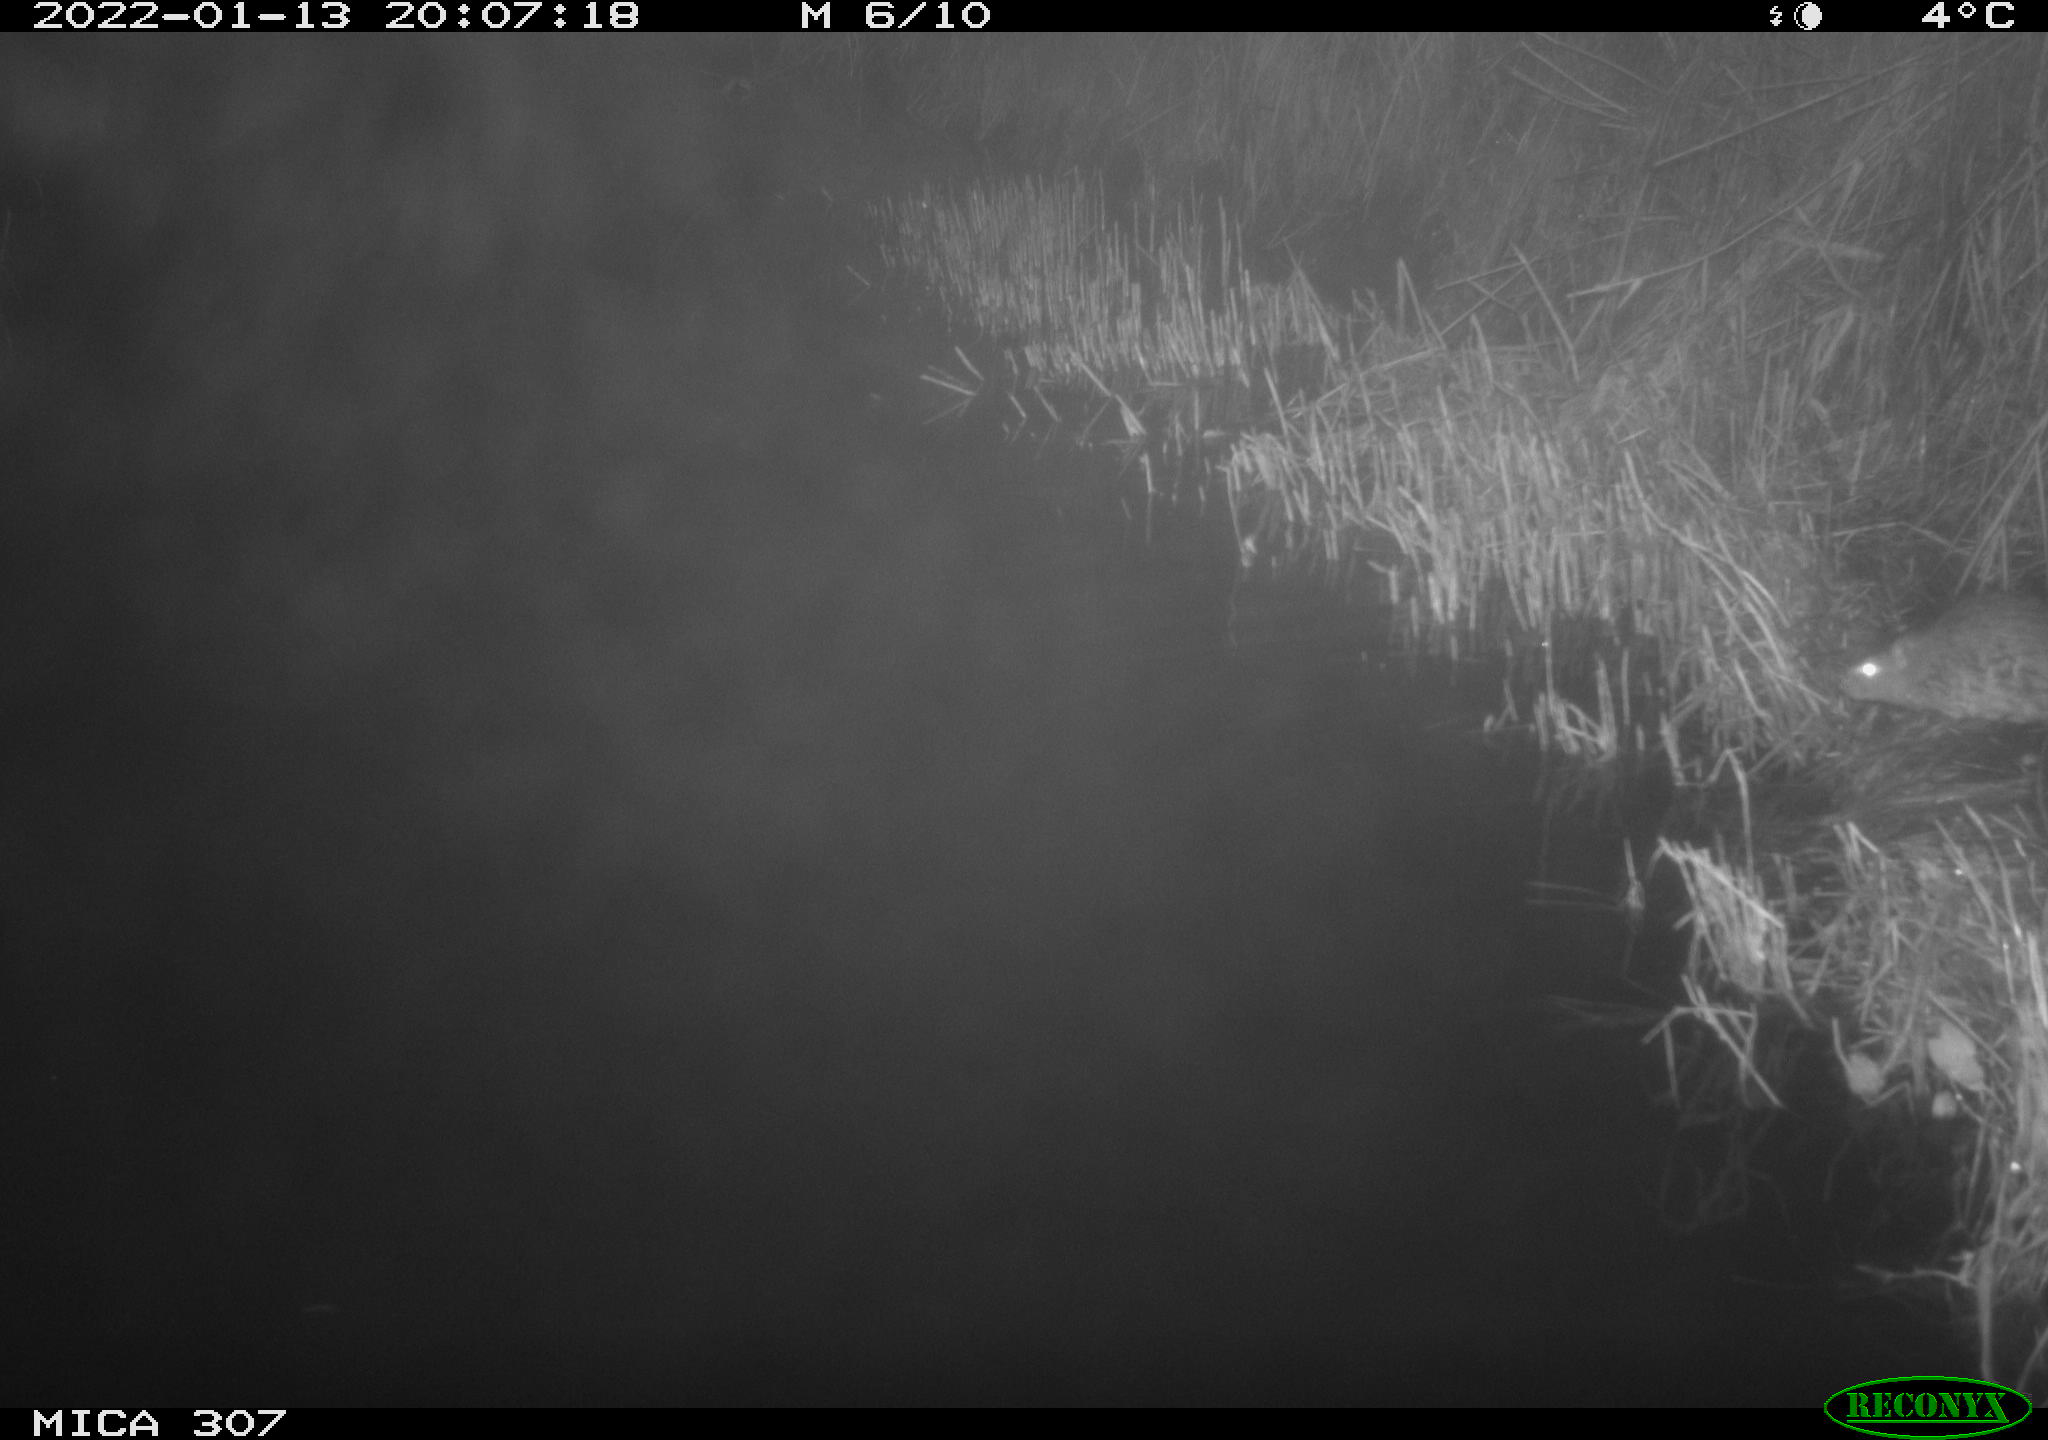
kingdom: Animalia
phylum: Chordata
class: Mammalia
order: Rodentia
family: Muridae
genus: Rattus
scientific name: Rattus norvegicus
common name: Brown rat
